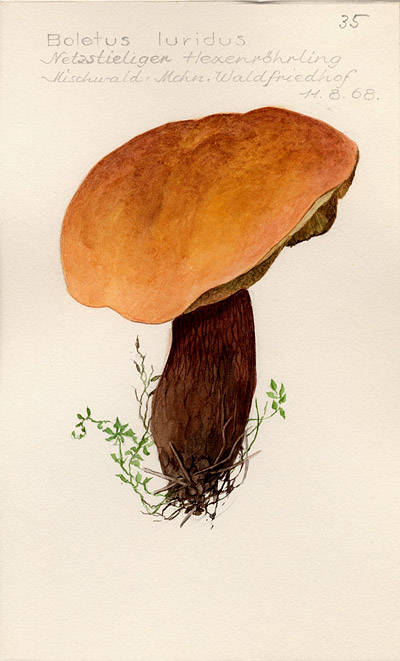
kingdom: Fungi
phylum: Basidiomycota
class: Agaricomycetes
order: Boletales
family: Boletaceae
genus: Suillellus
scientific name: Suillellus luridus
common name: Lurid bolete
